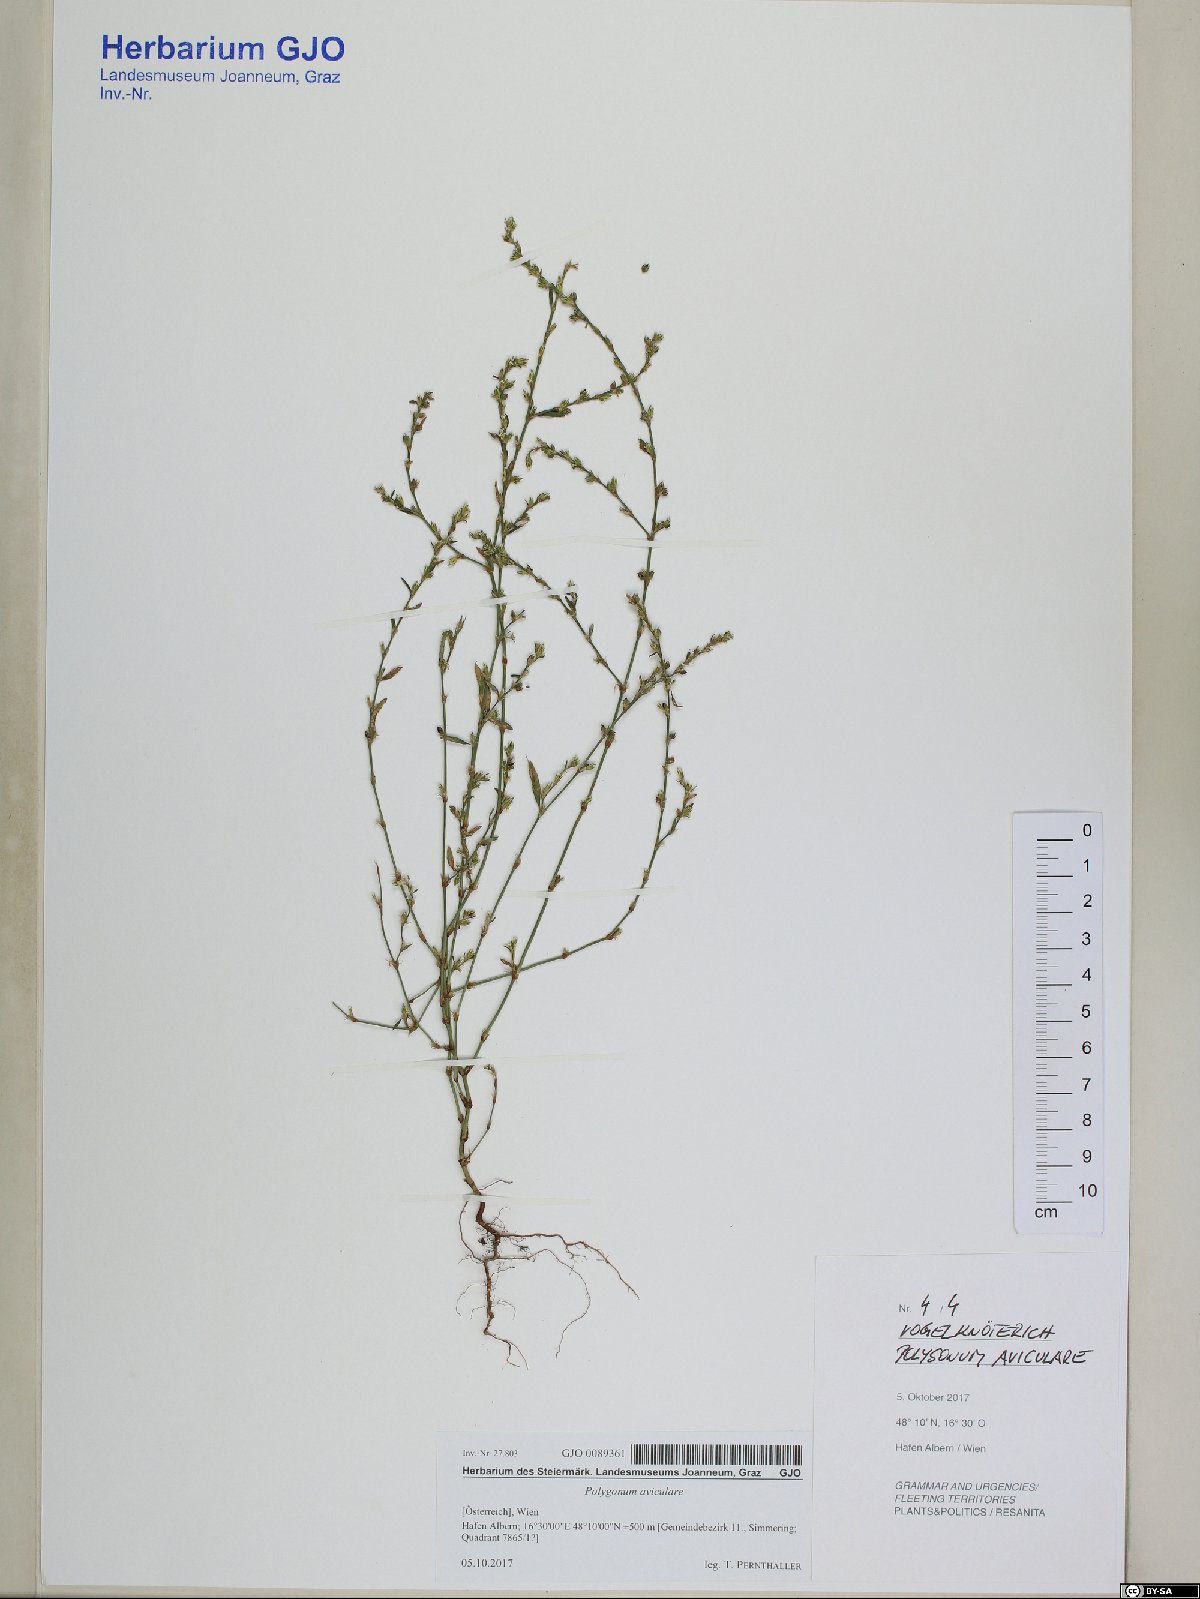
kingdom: Plantae
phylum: Tracheophyta
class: Magnoliopsida
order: Caryophyllales
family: Polygonaceae
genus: Polygonum
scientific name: Polygonum aviculare
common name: Prostrate knotweed
